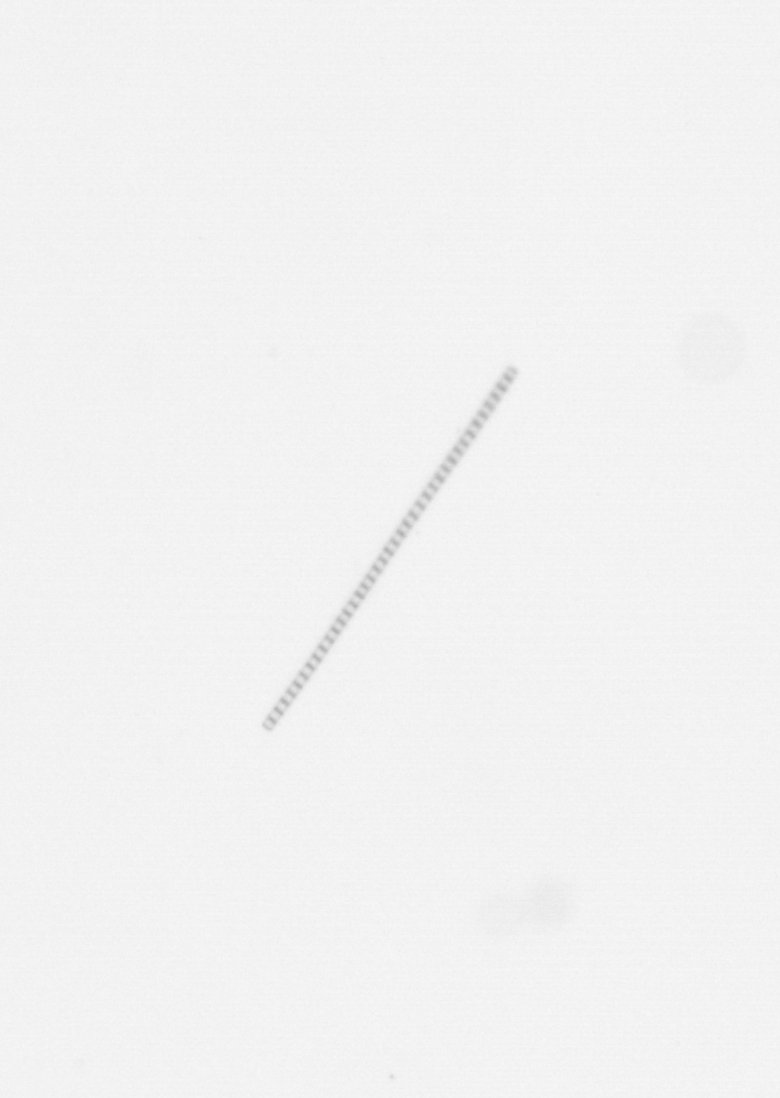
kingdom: Chromista
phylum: Ochrophyta
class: Bacillariophyceae
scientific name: Bacillariophyceae
